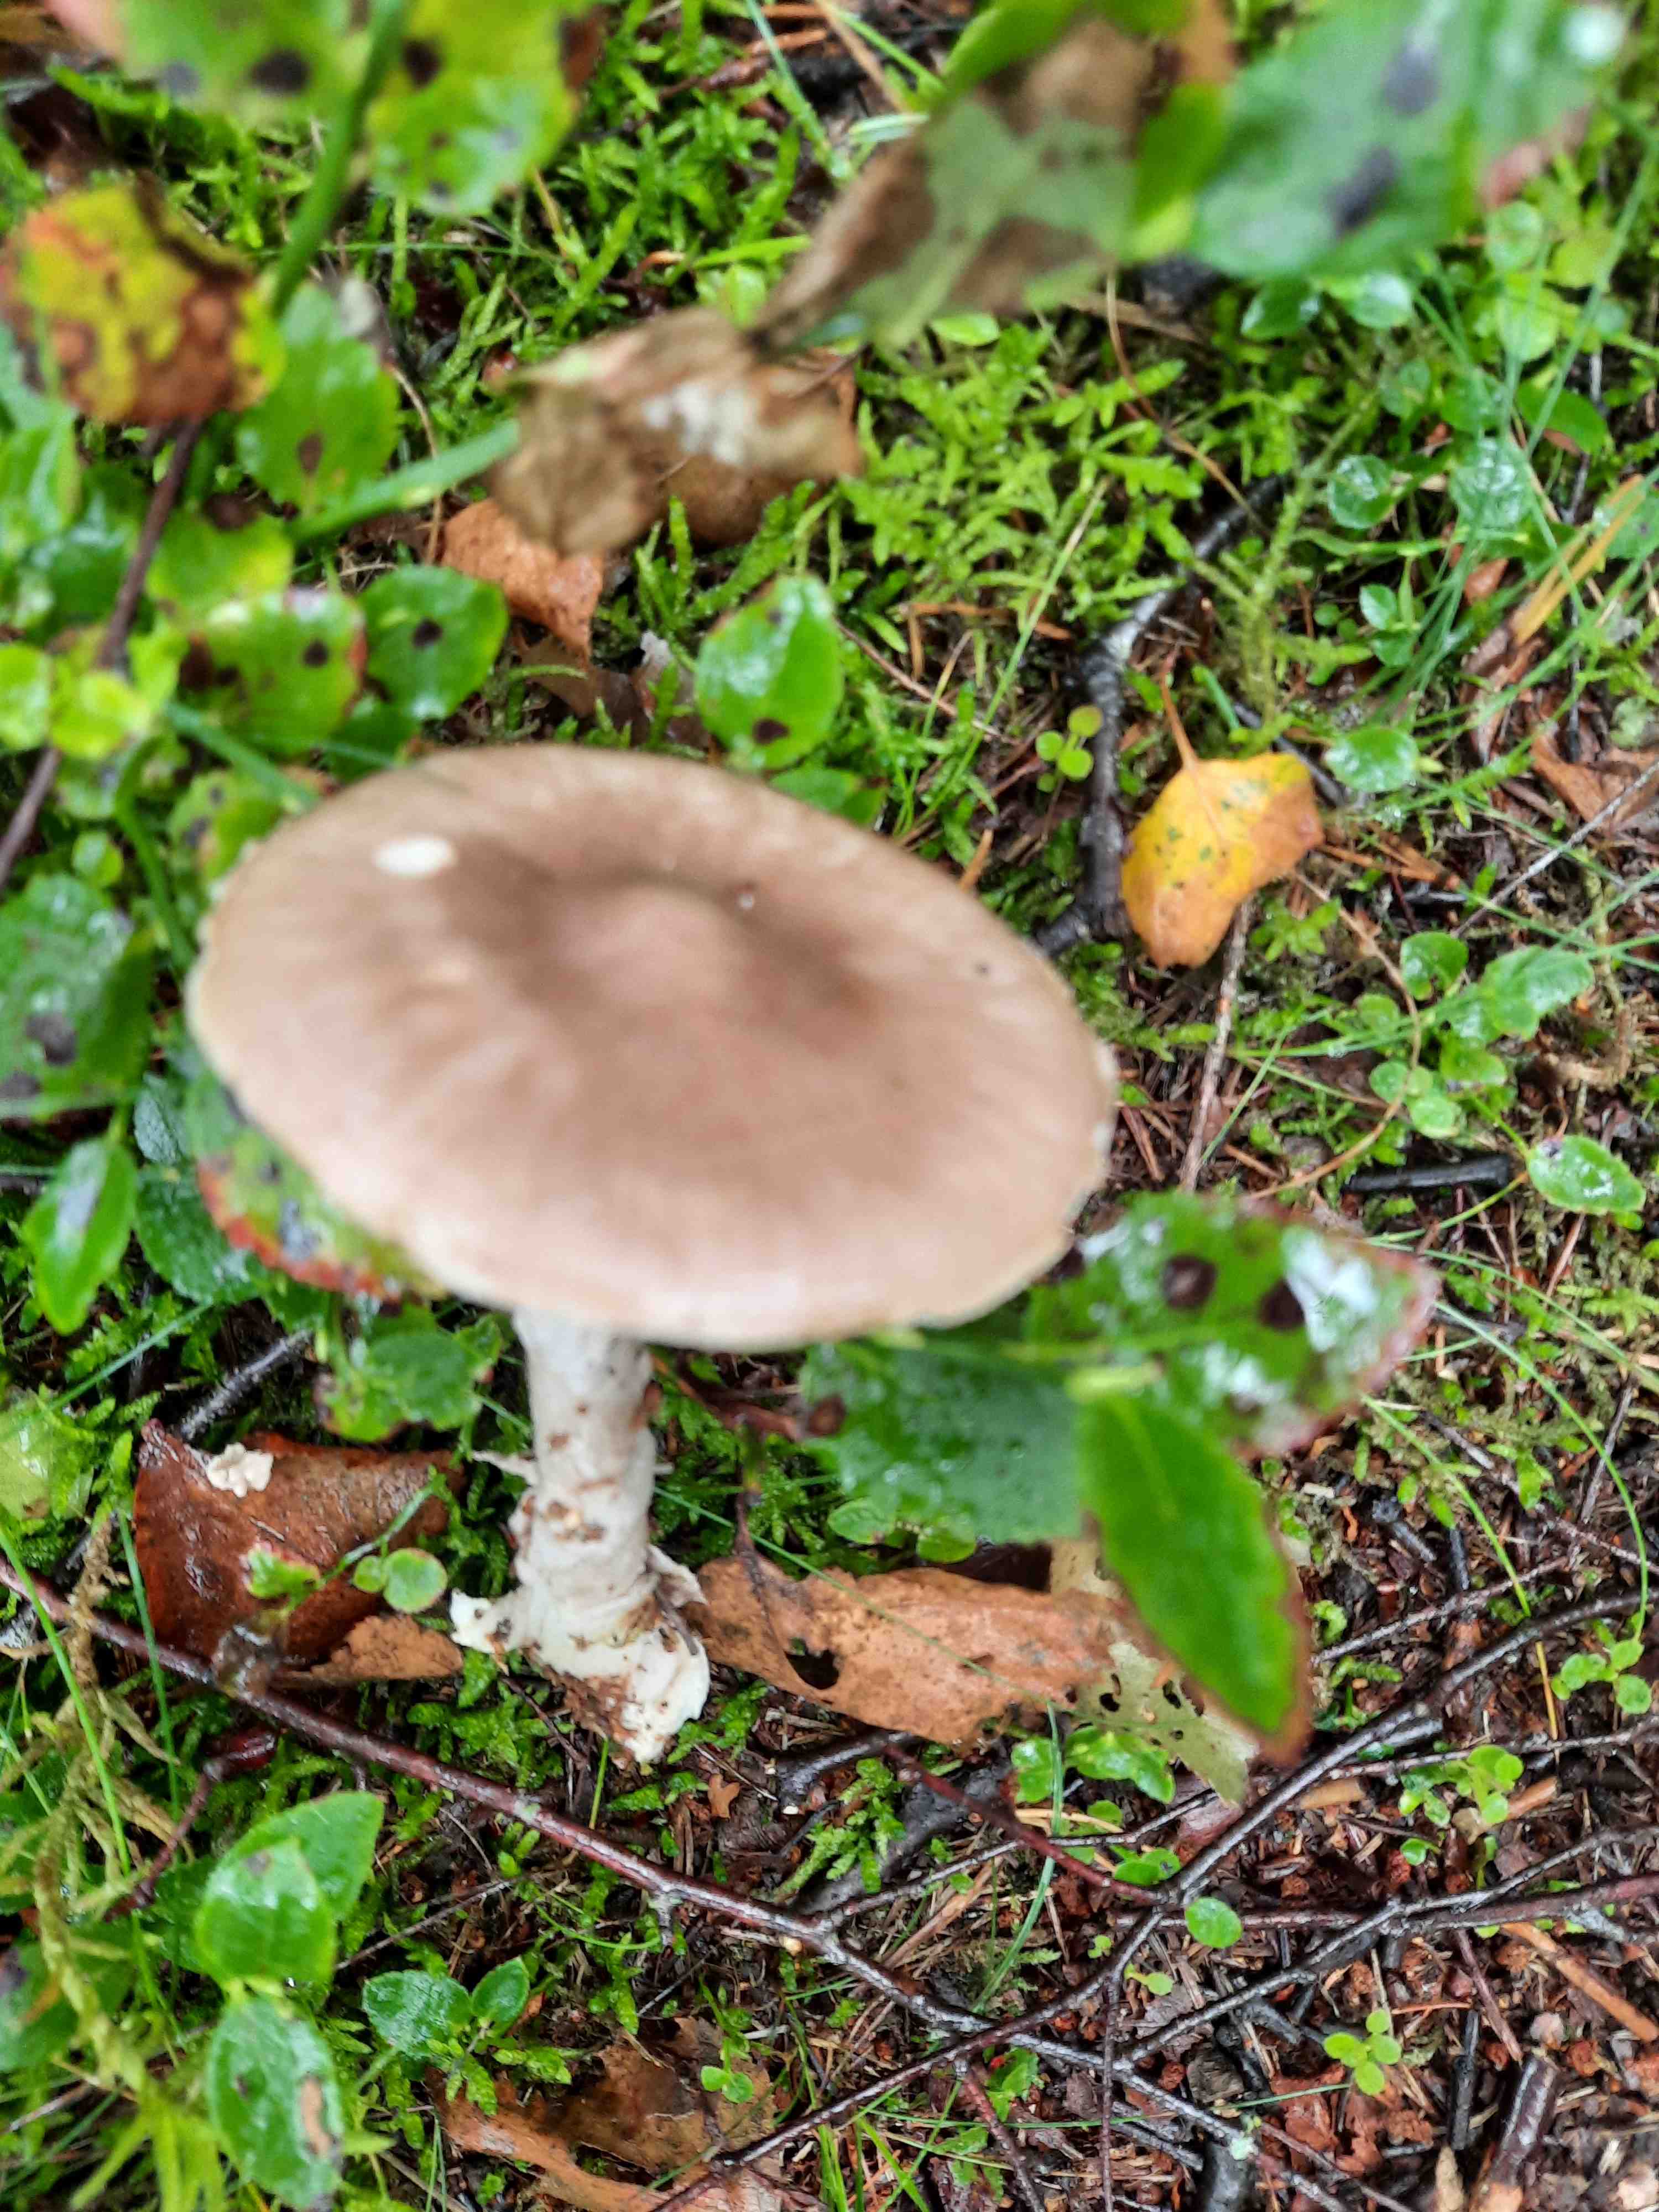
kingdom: Fungi
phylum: Basidiomycota
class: Agaricomycetes
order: Agaricales
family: Amanitaceae
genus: Amanita
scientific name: Amanita porphyria
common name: porfyr-fluesvamp
